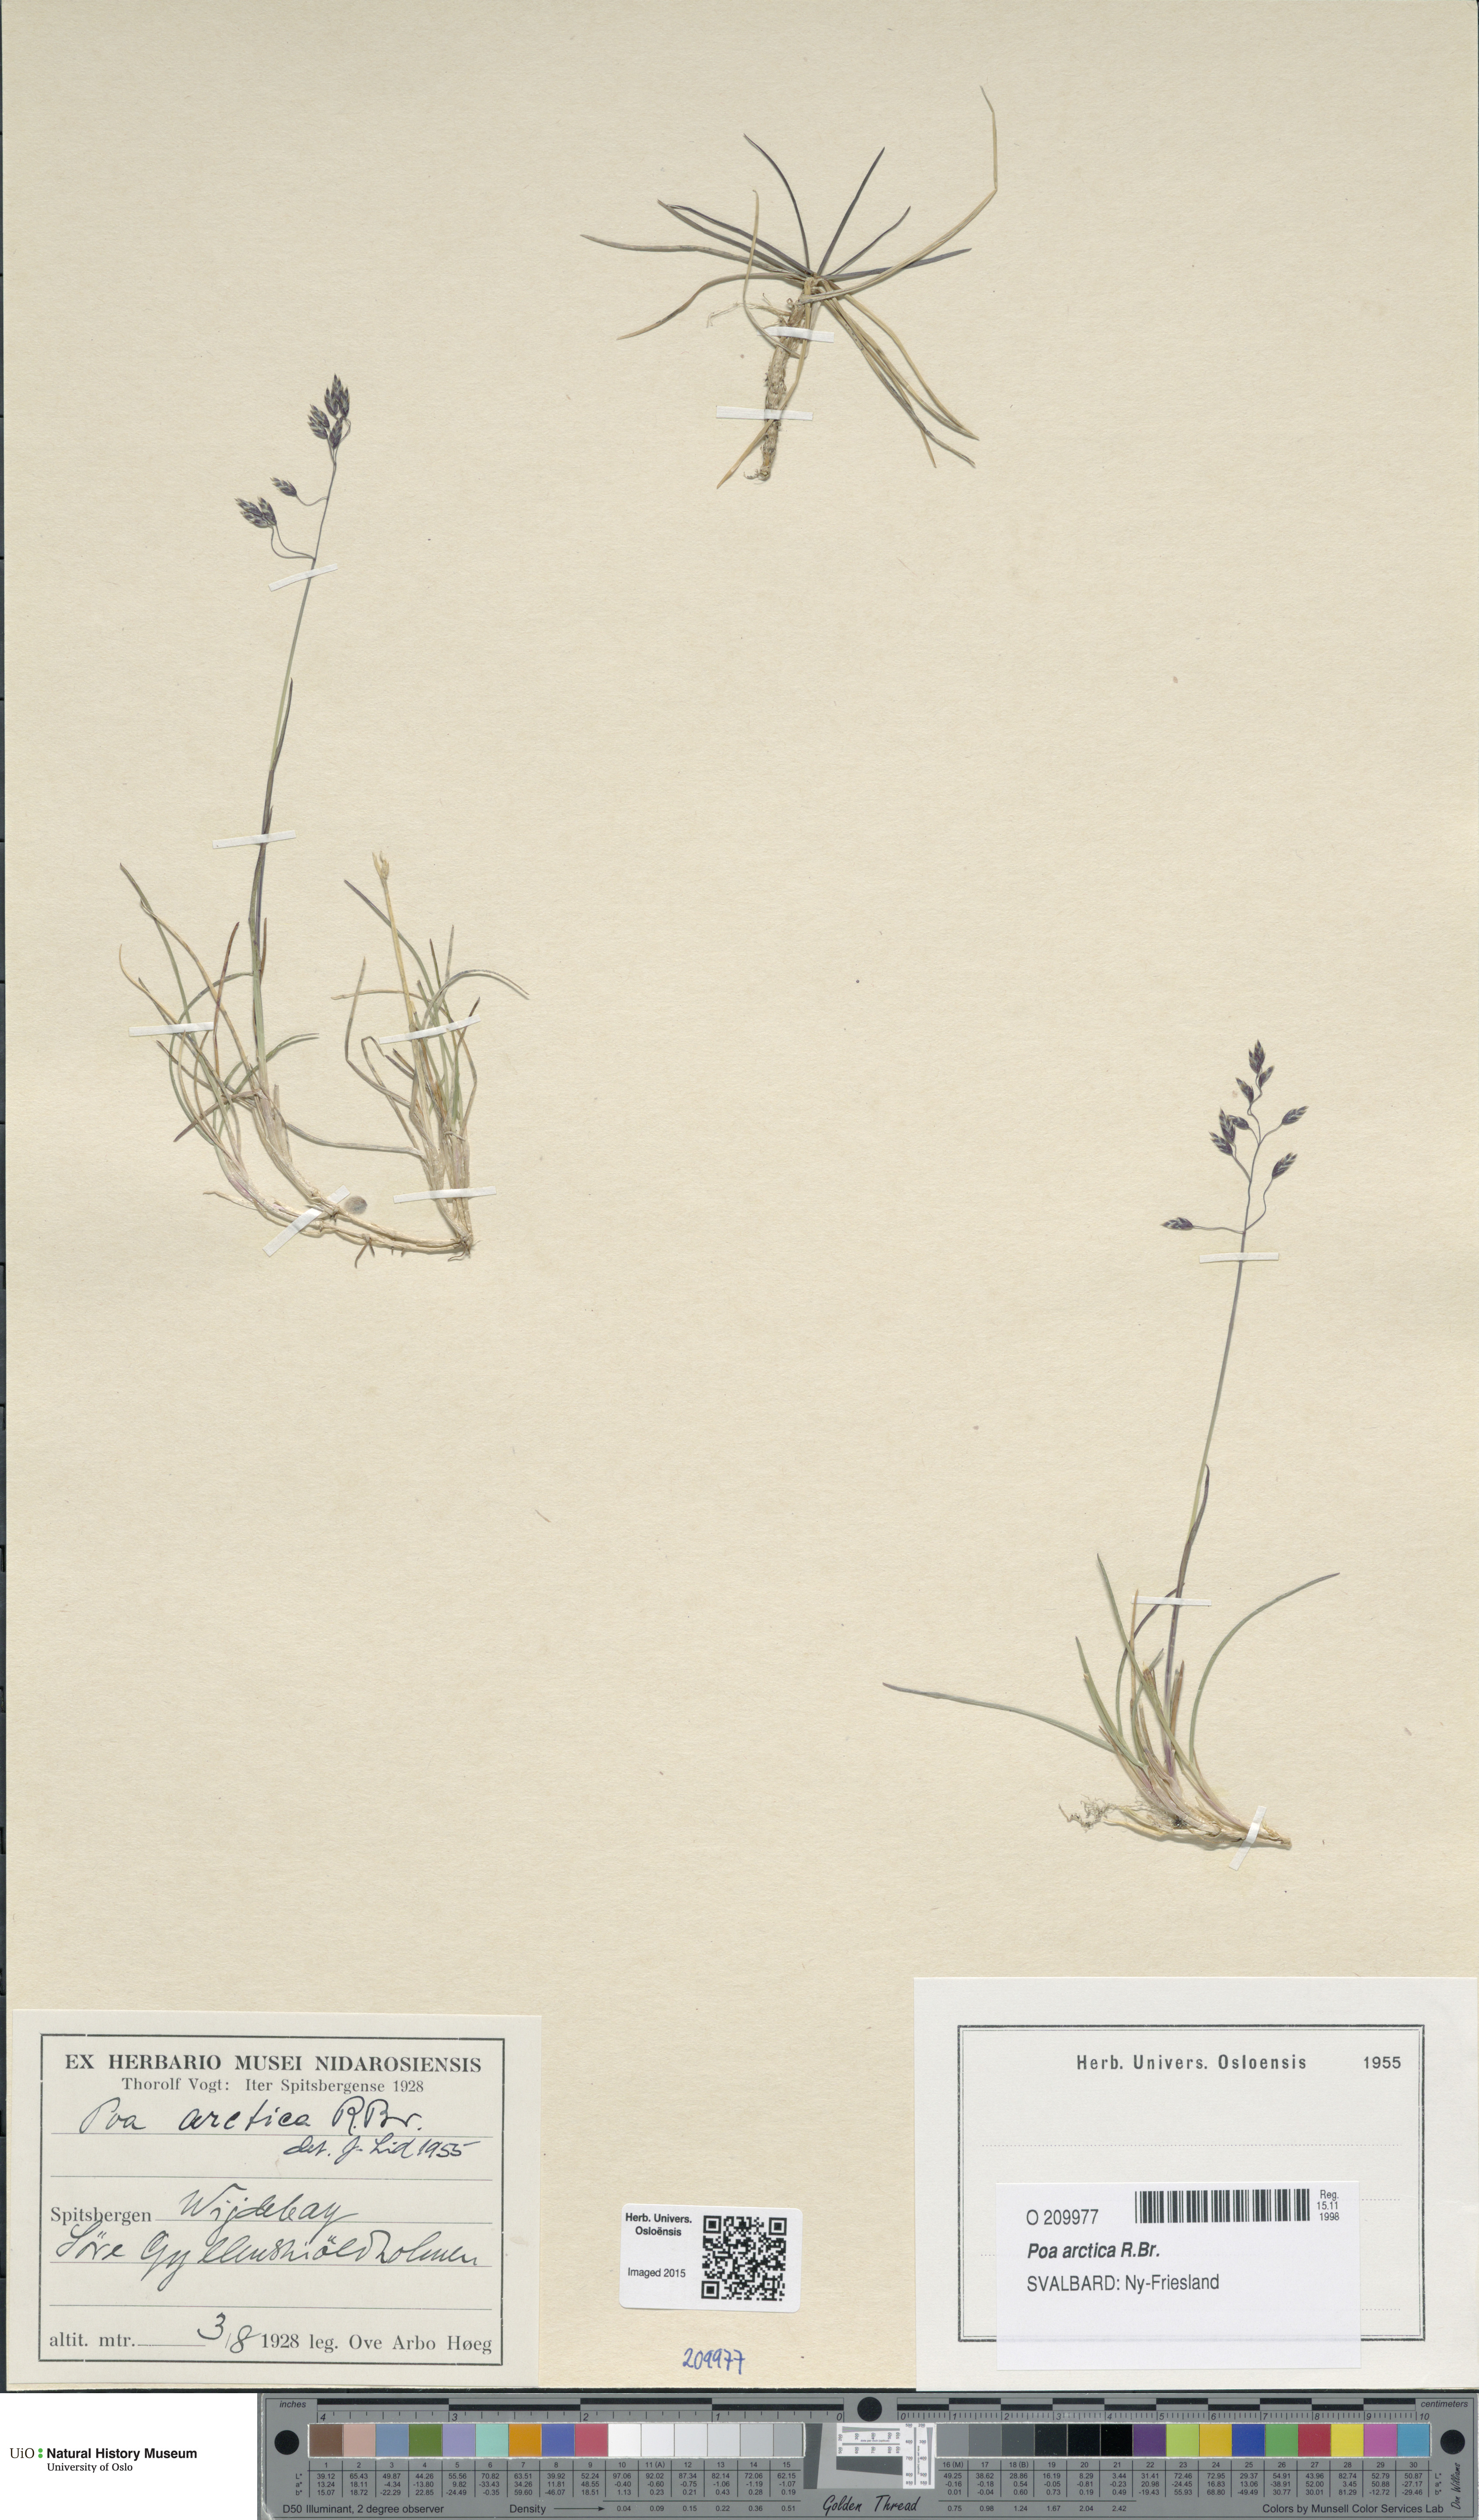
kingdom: Plantae
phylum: Tracheophyta
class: Liliopsida
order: Poales
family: Poaceae
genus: Poa
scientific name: Poa arctica
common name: Arctic bluegrass
